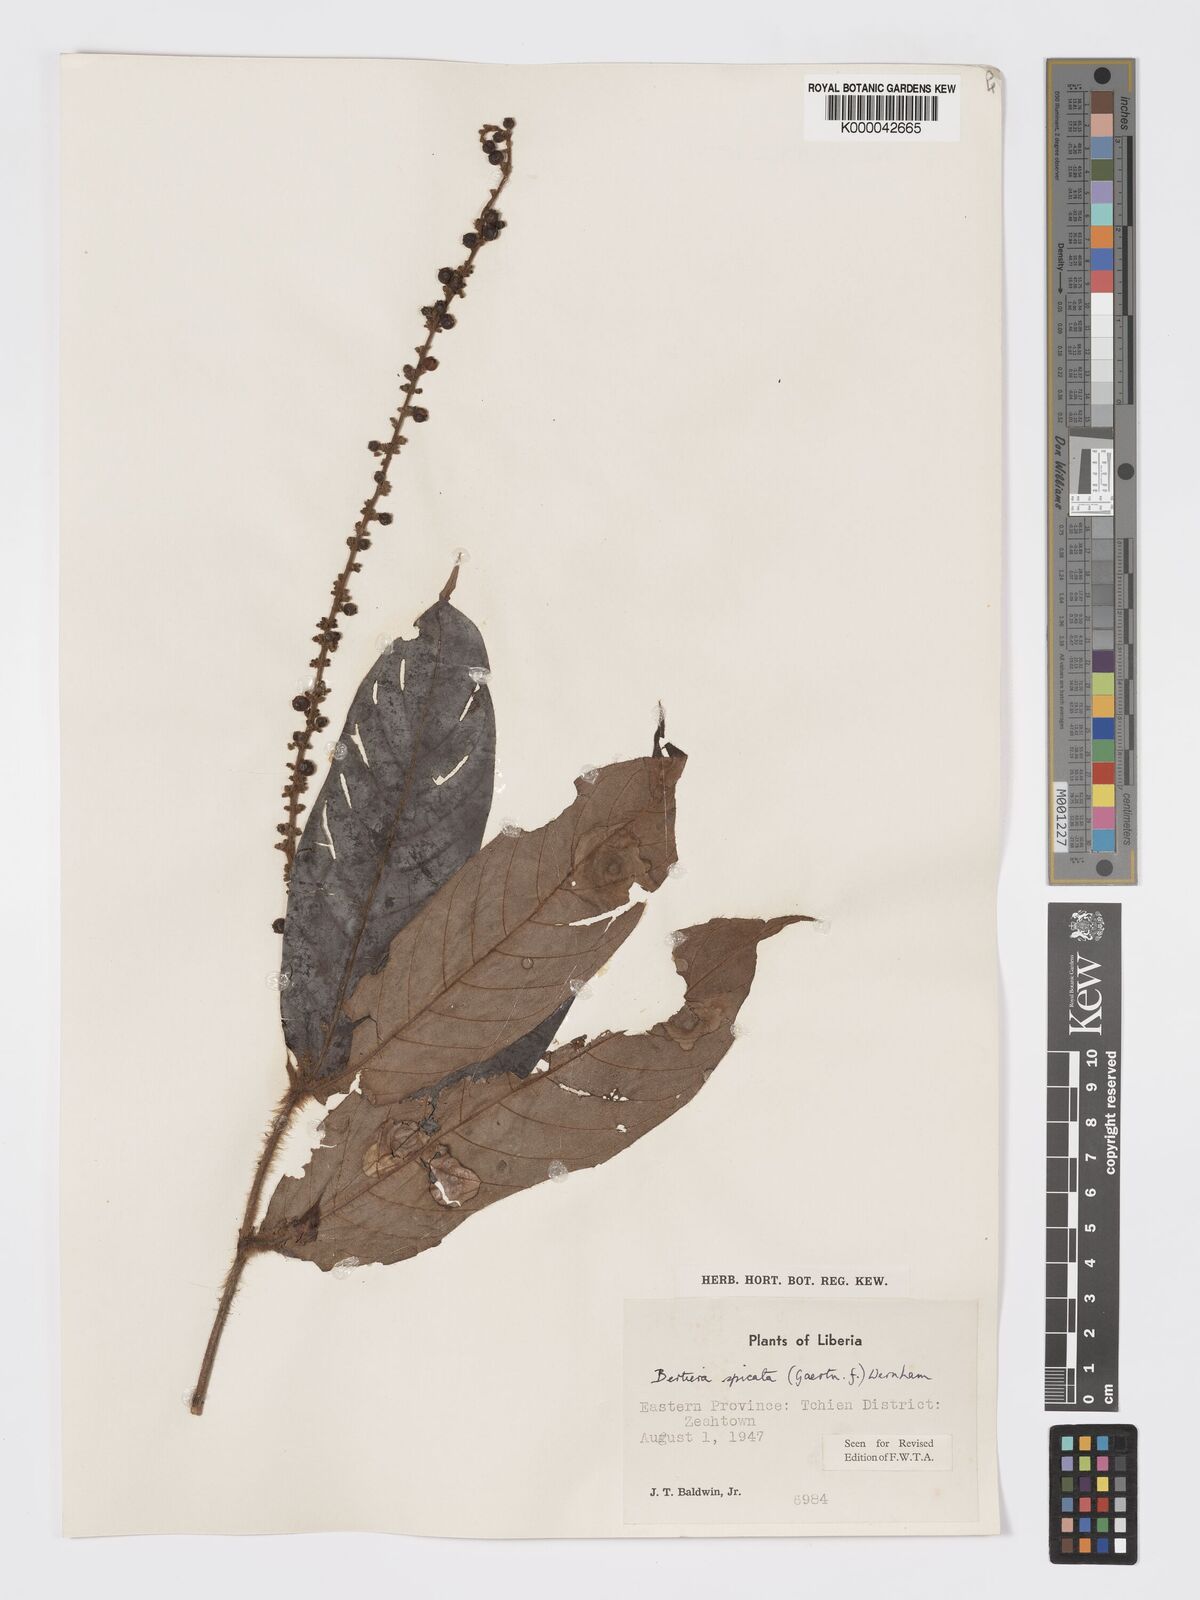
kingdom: Plantae
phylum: Tracheophyta
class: Magnoliopsida
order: Gentianales
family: Rubiaceae
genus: Bertiera
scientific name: Bertiera
